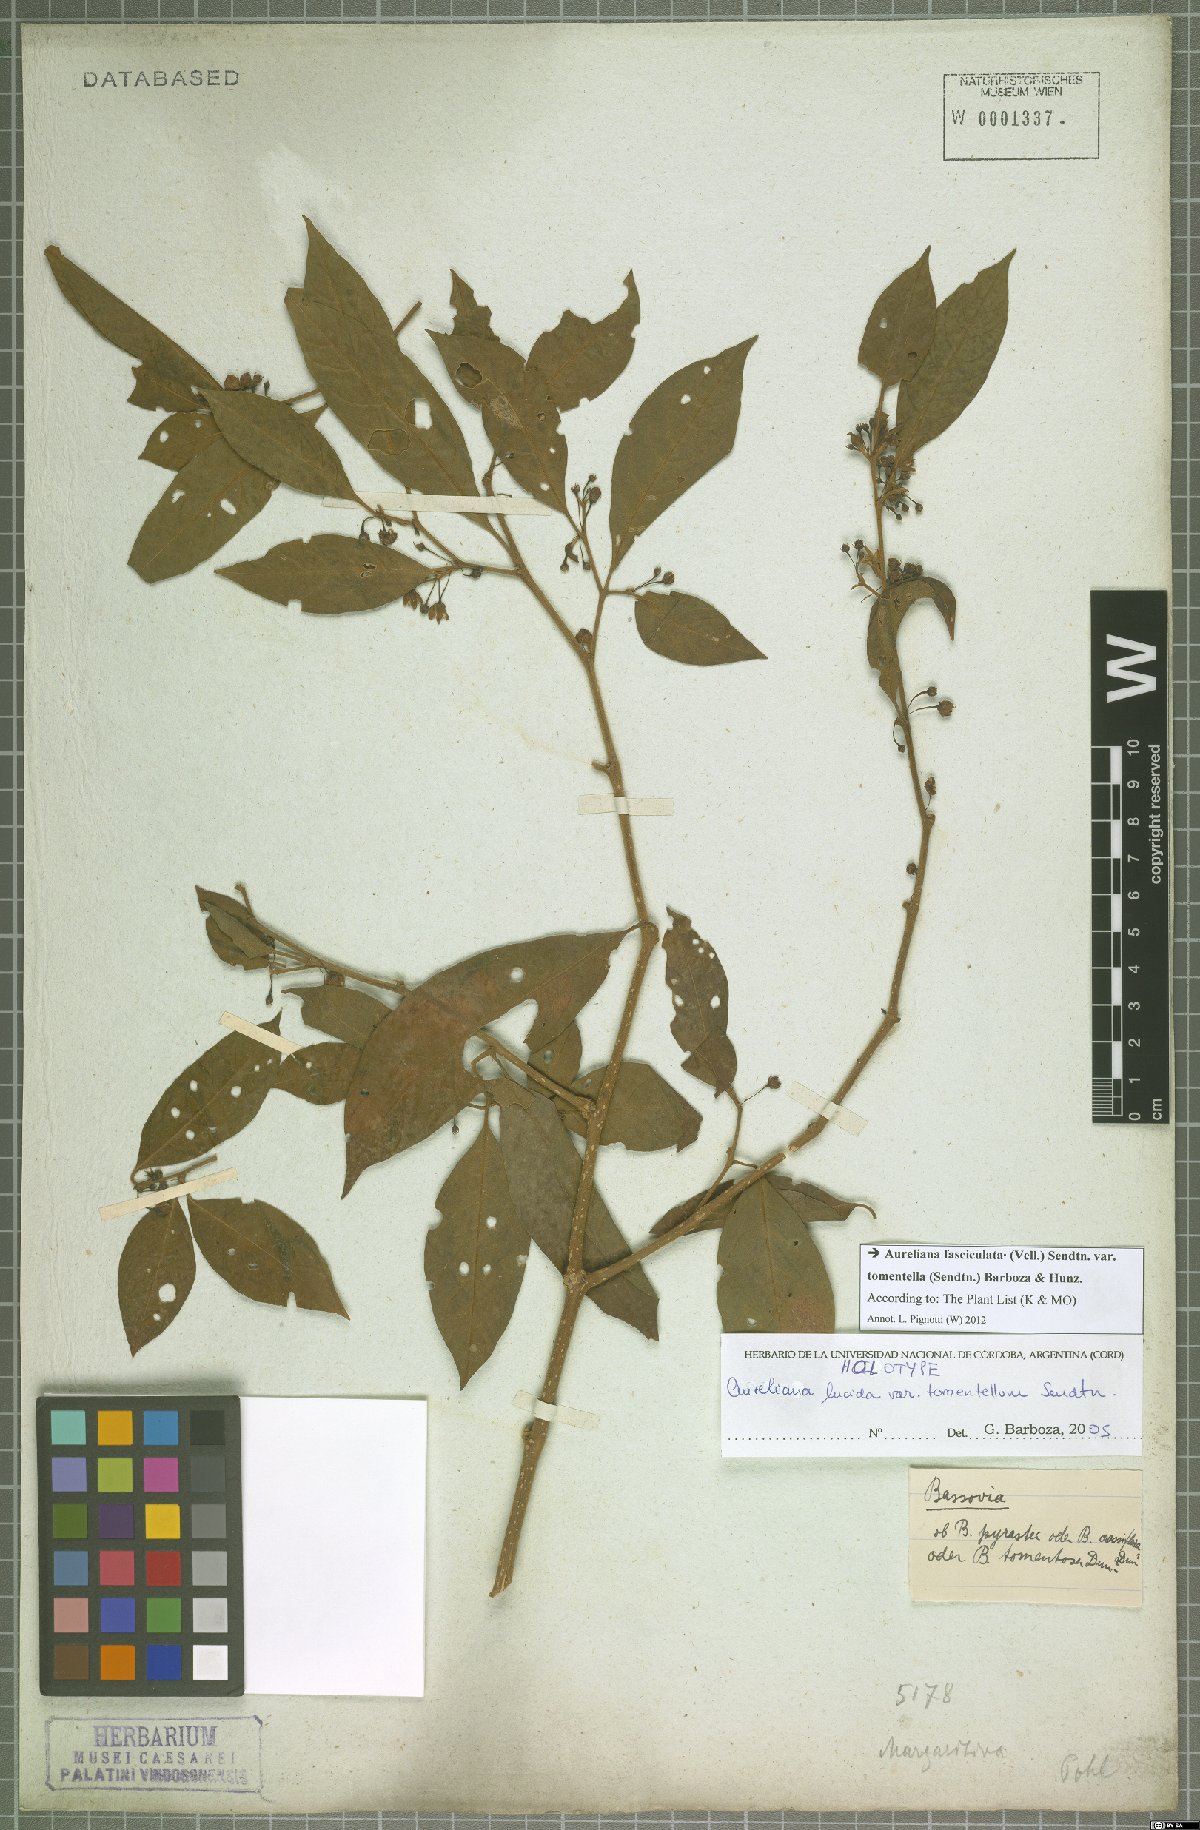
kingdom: Plantae
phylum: Tracheophyta
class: Magnoliopsida
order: Solanales
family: Solanaceae
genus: Athenaea
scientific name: Athenaea fasciculata
